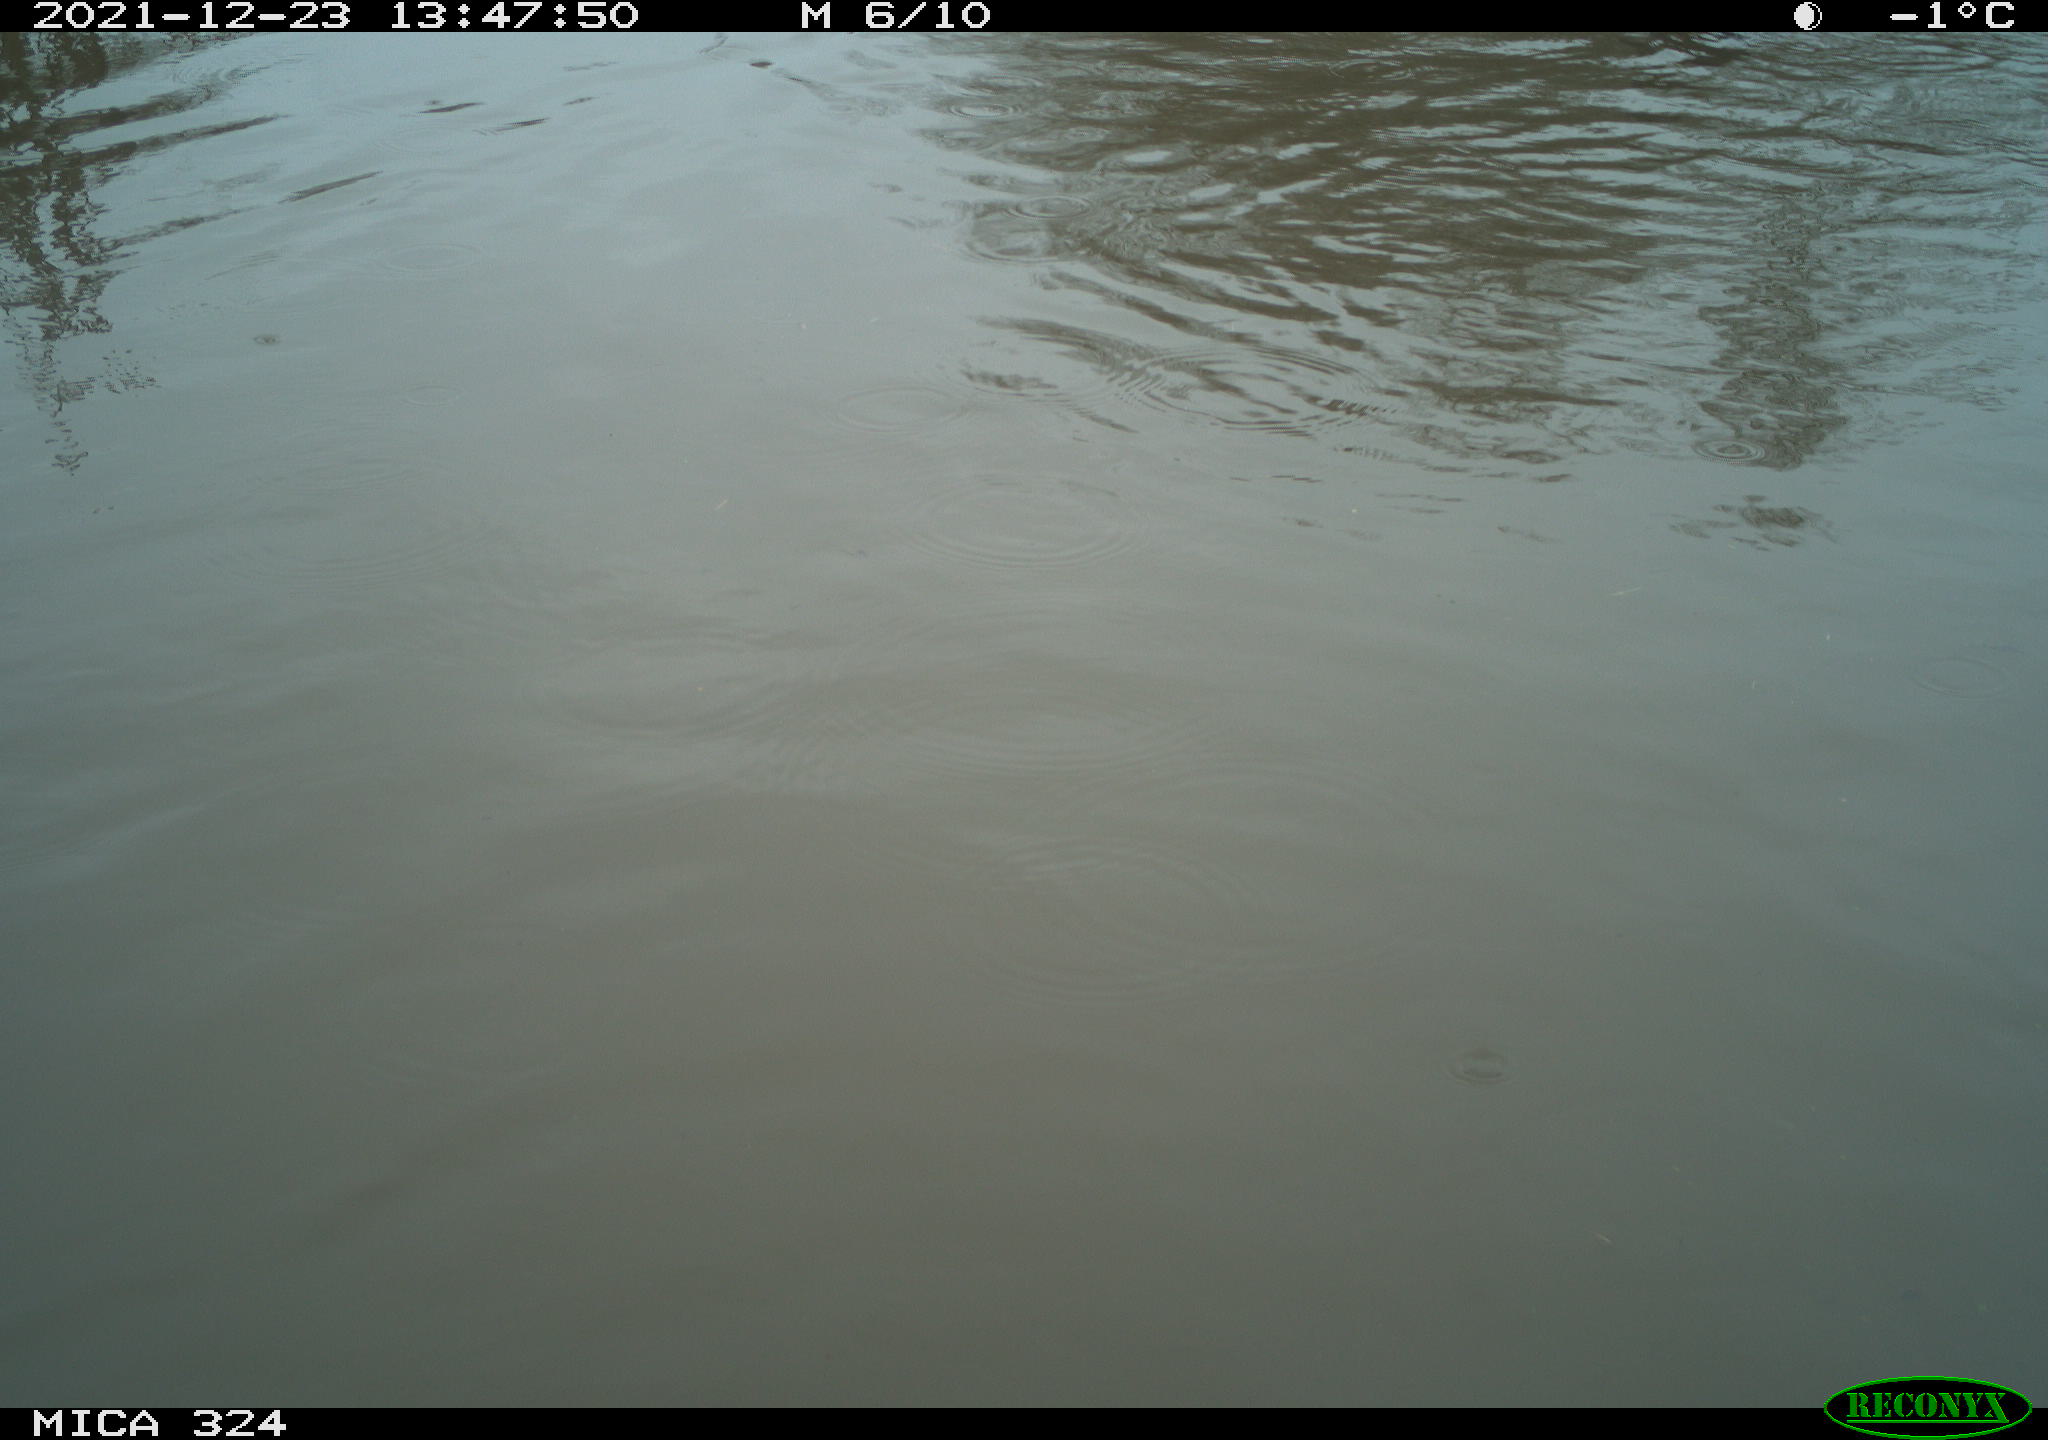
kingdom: Animalia
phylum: Chordata
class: Aves
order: Gruiformes
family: Rallidae
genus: Fulica
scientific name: Fulica atra
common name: Eurasian coot
